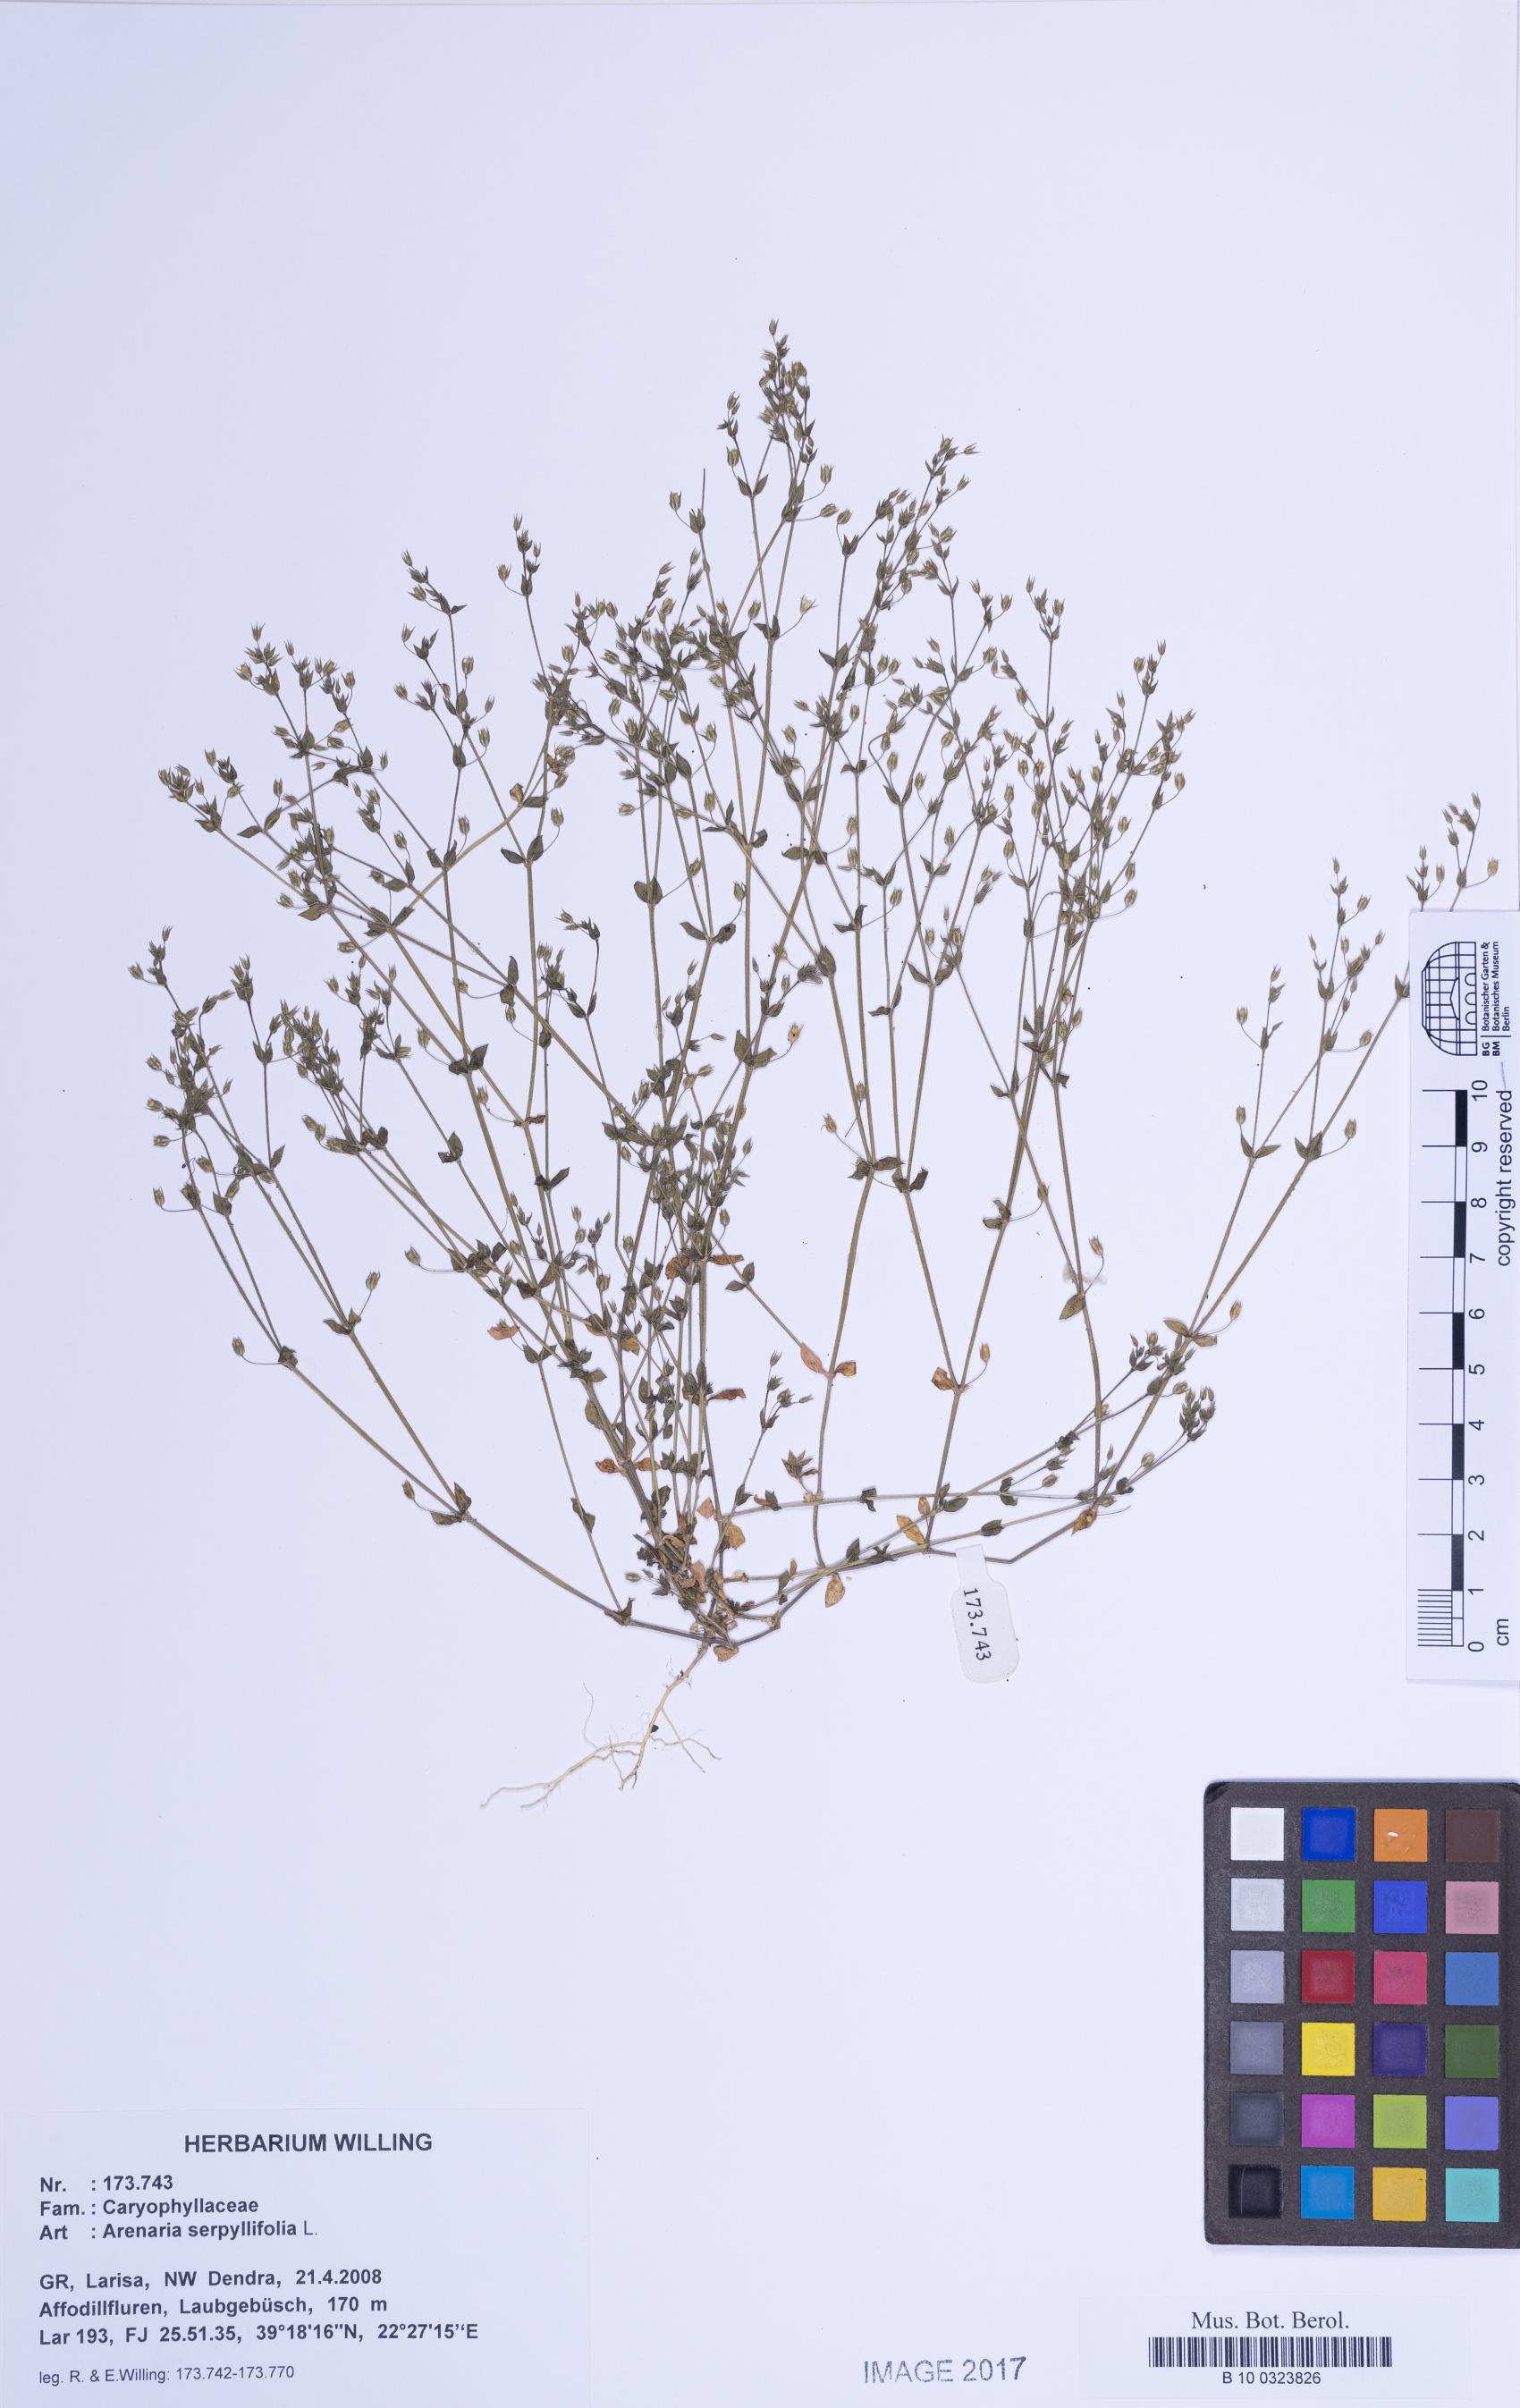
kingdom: Plantae
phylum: Tracheophyta
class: Magnoliopsida
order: Caryophyllales
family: Caryophyllaceae
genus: Arenaria
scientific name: Arenaria serpyllifolia
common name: Thyme-leaved sandwort
